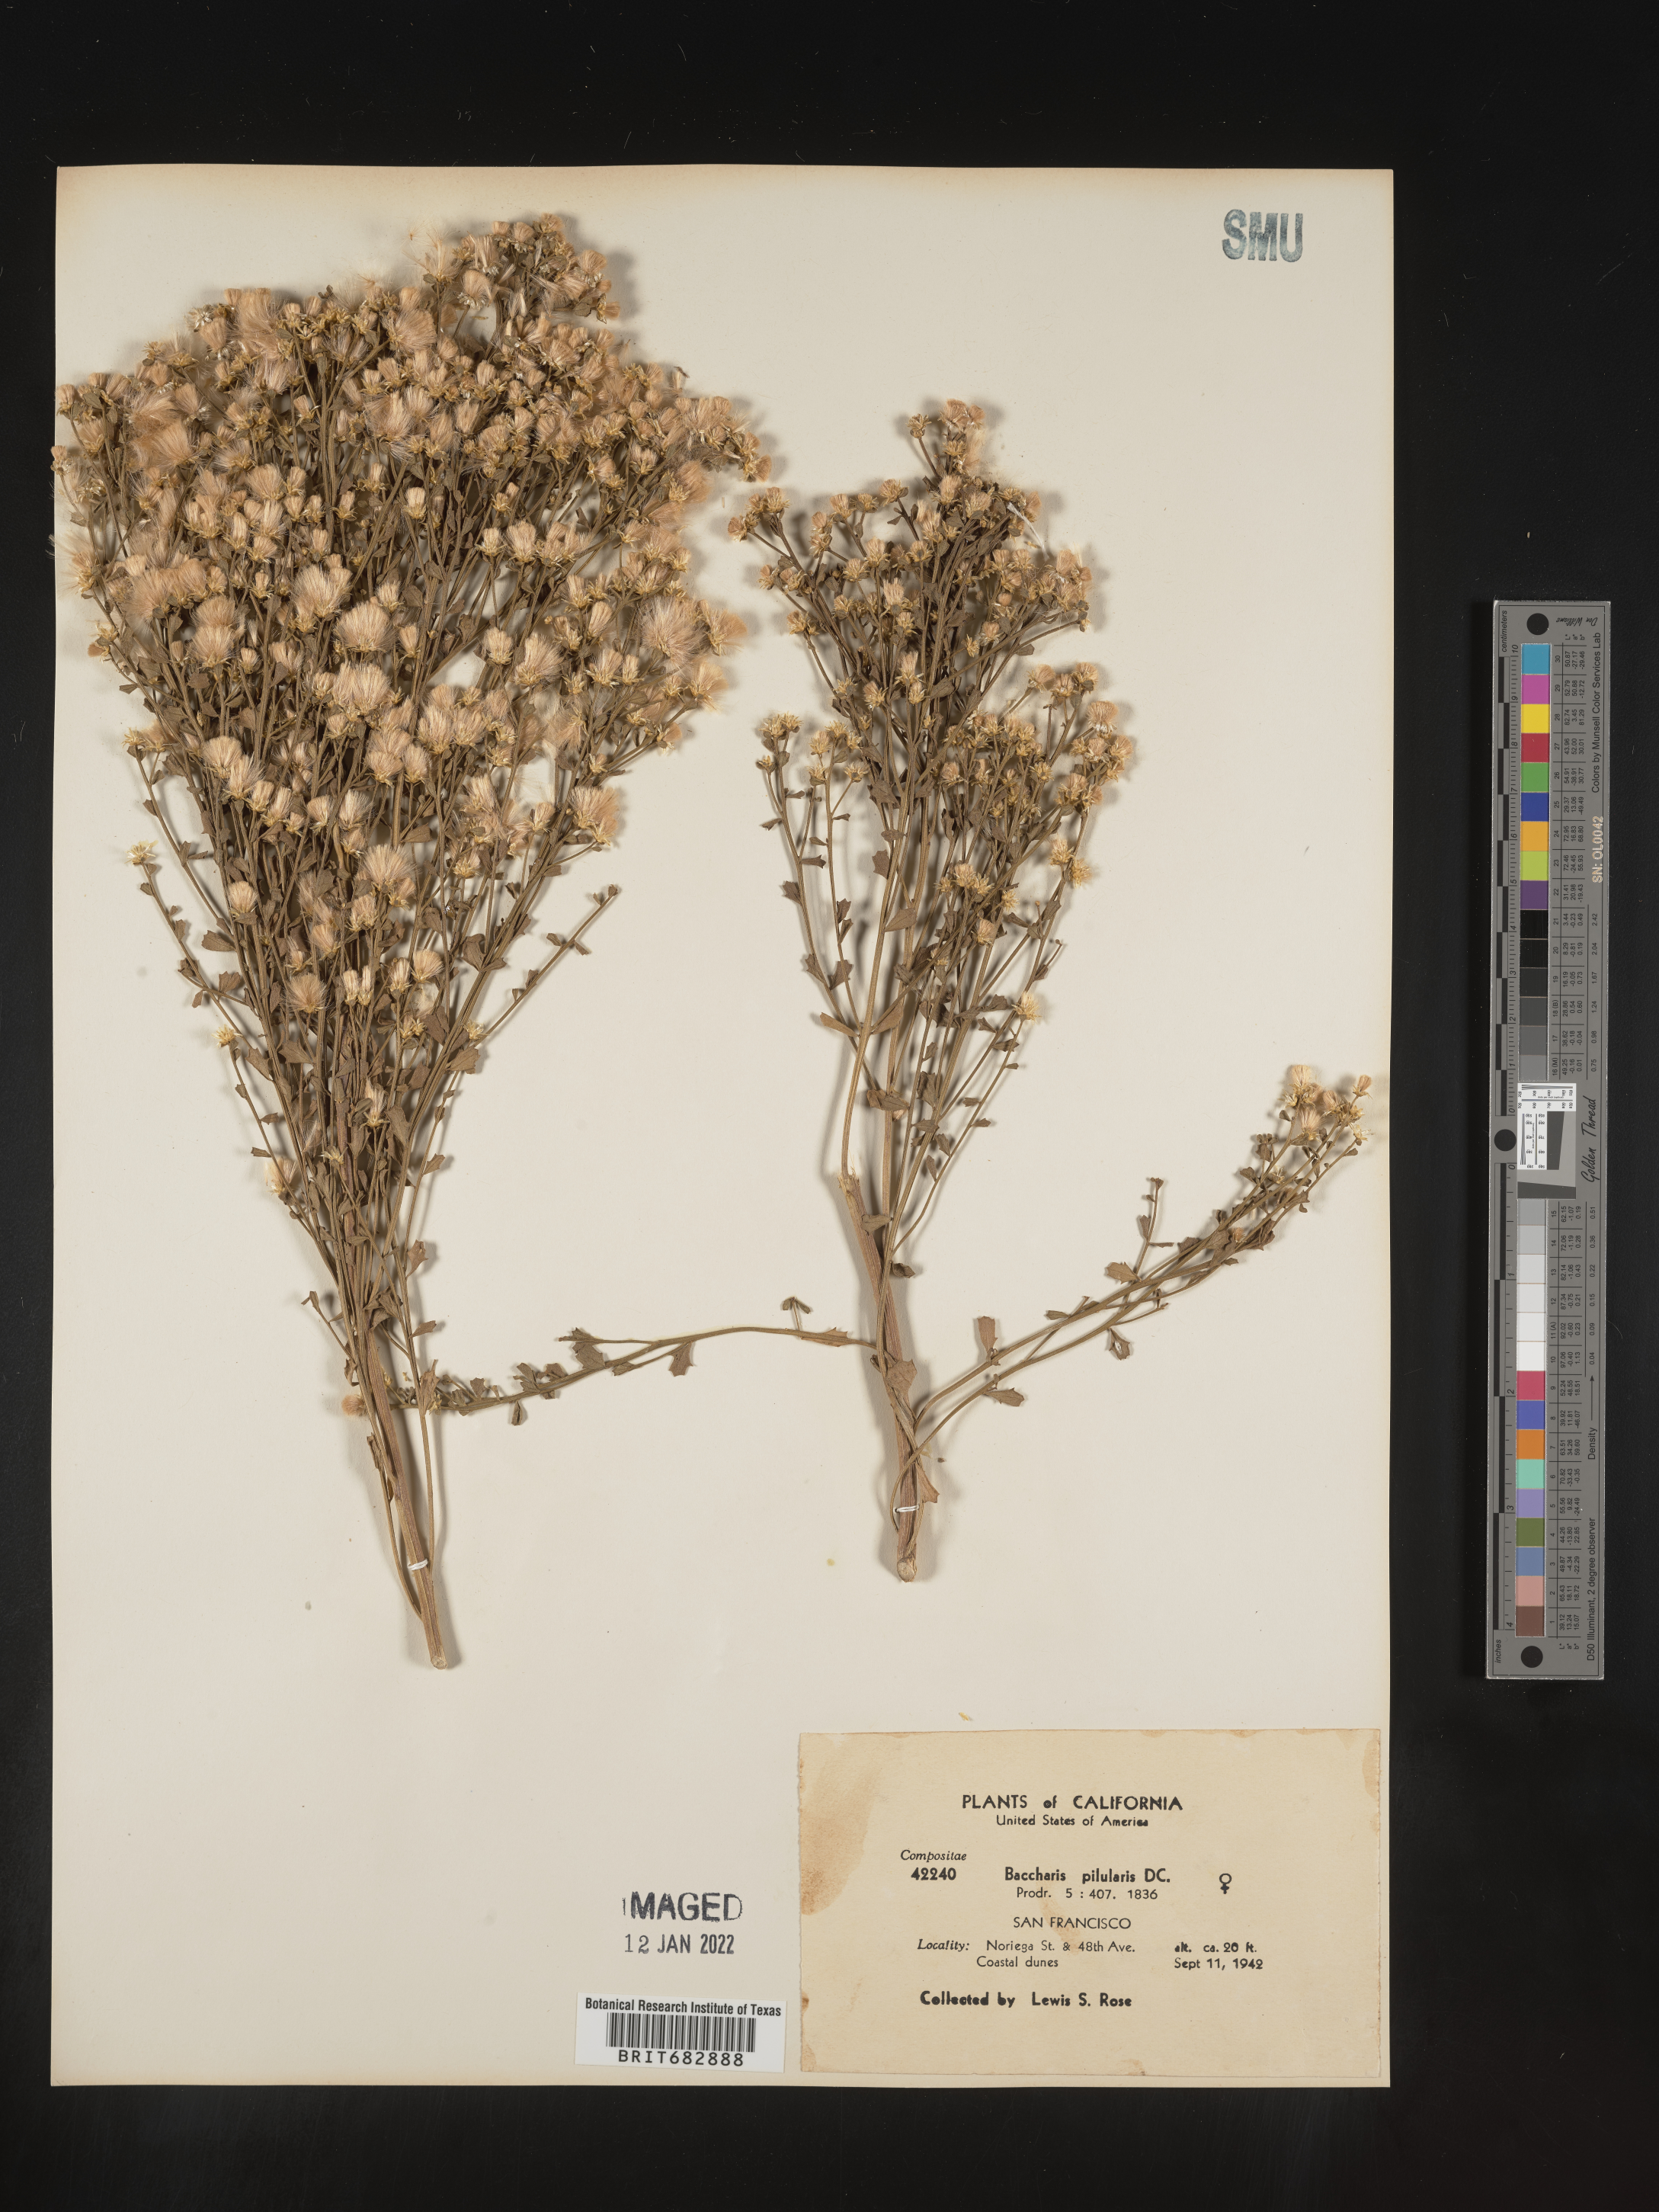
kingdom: Plantae
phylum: Tracheophyta
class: Magnoliopsida
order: Asterales
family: Asteraceae
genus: Baccharis
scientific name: Baccharis pilularis
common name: Coyotebrush
